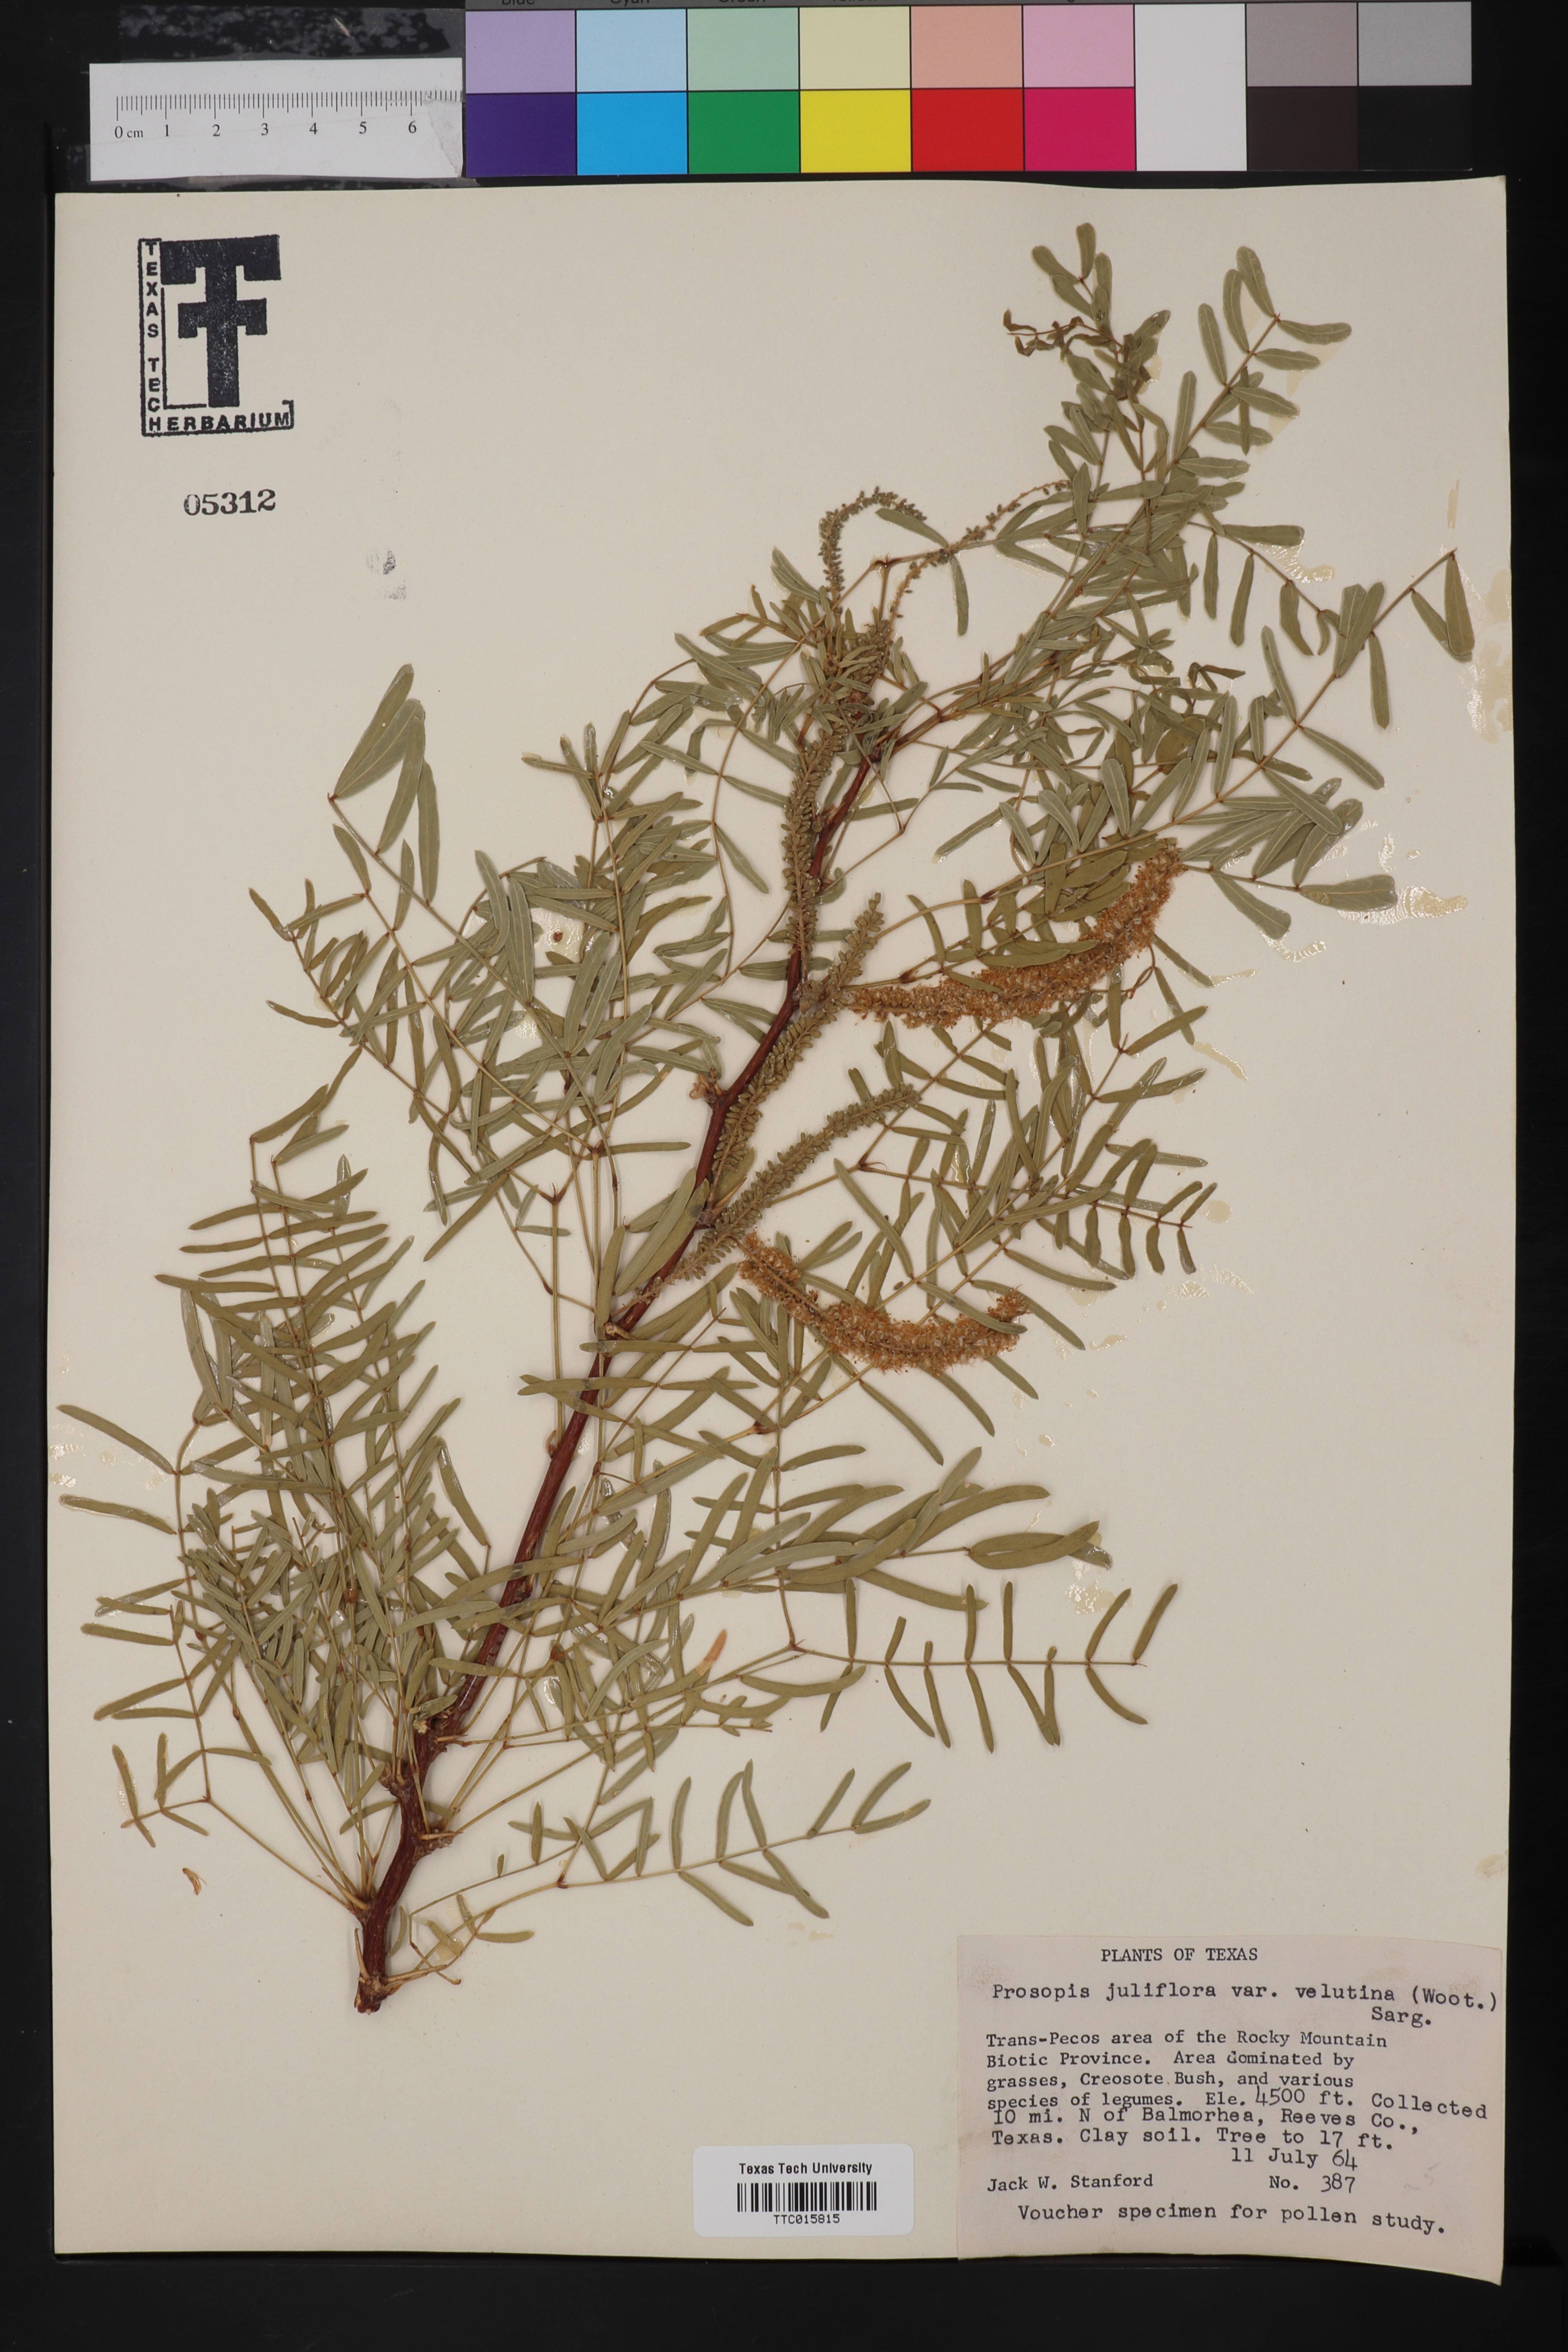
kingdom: Plantae
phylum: Tracheophyta
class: Magnoliopsida
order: Fabales
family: Fabaceae
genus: Prosopis
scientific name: Prosopis velutina
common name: Velvet mesquite
